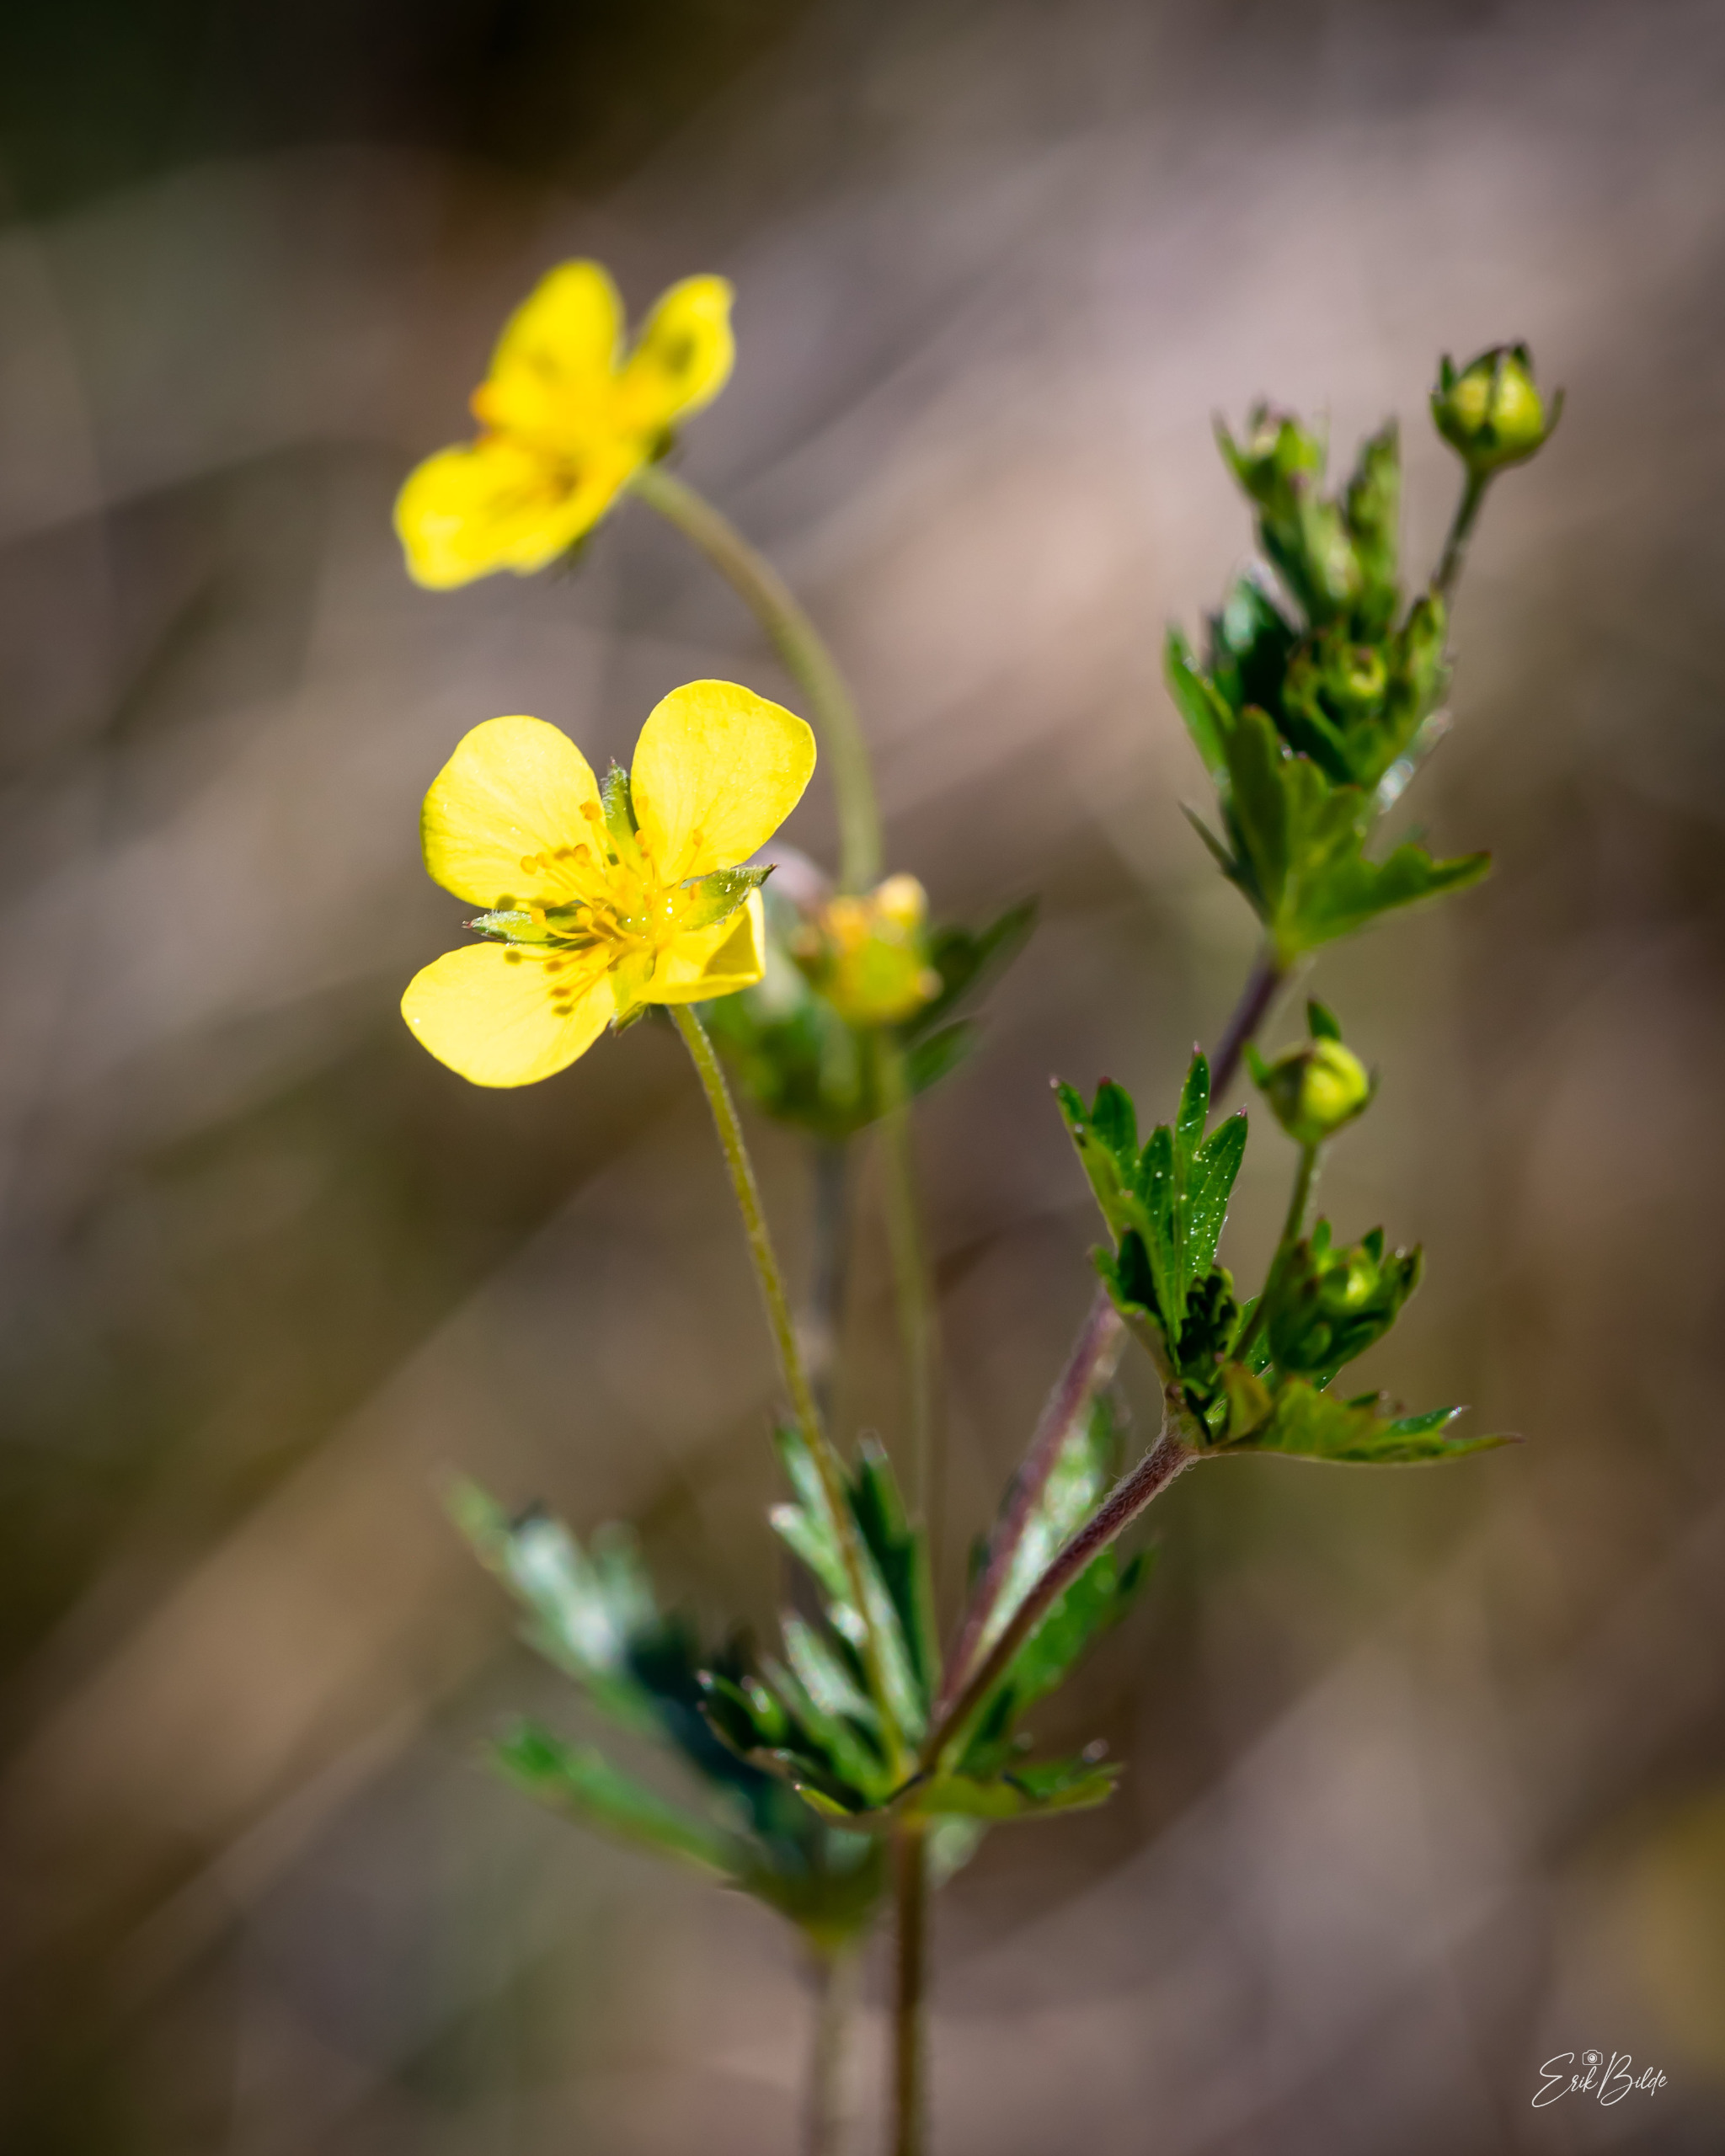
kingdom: Plantae
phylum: Tracheophyta
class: Magnoliopsida
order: Rosales
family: Rosaceae
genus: Potentilla
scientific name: Potentilla erecta
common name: Tormentil
